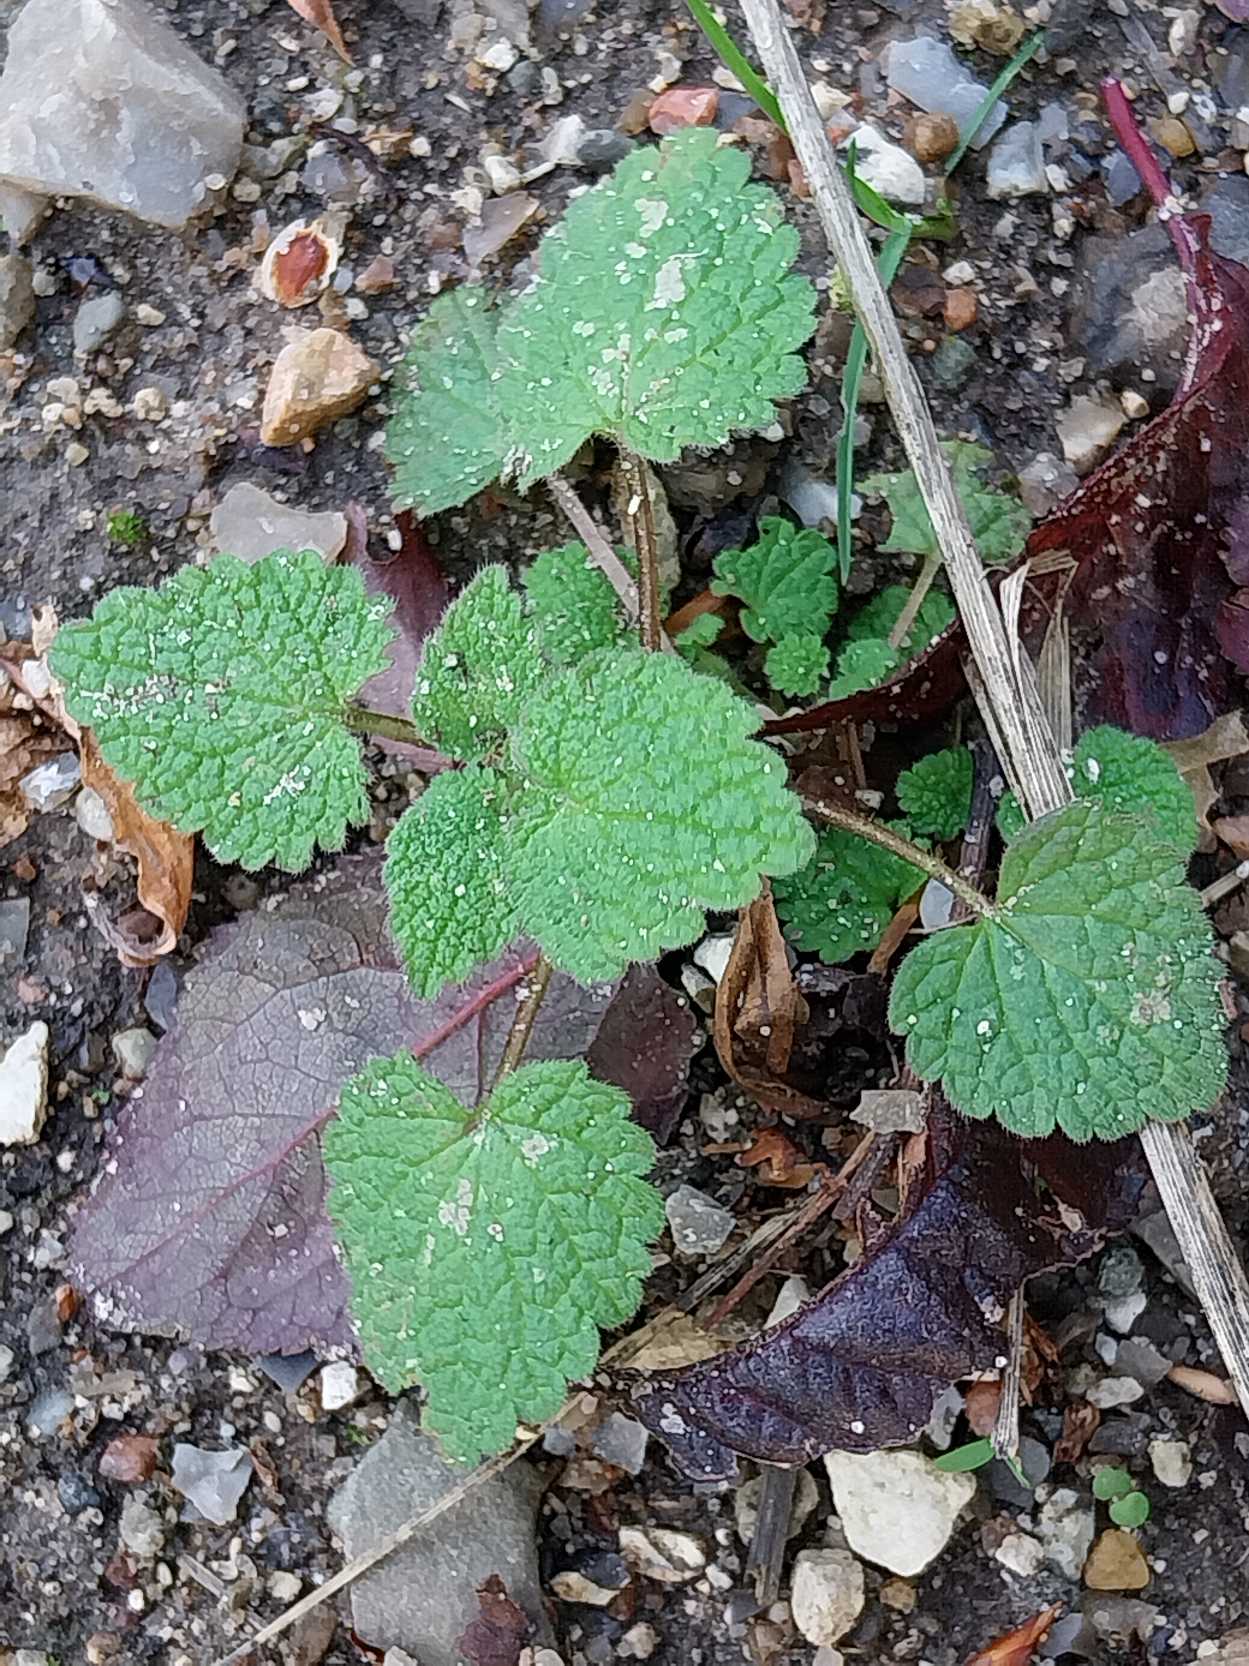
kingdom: Plantae
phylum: Tracheophyta
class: Magnoliopsida
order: Lamiales
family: Lamiaceae
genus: Lamium
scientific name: Lamium purpureum
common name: Rød tvetand
